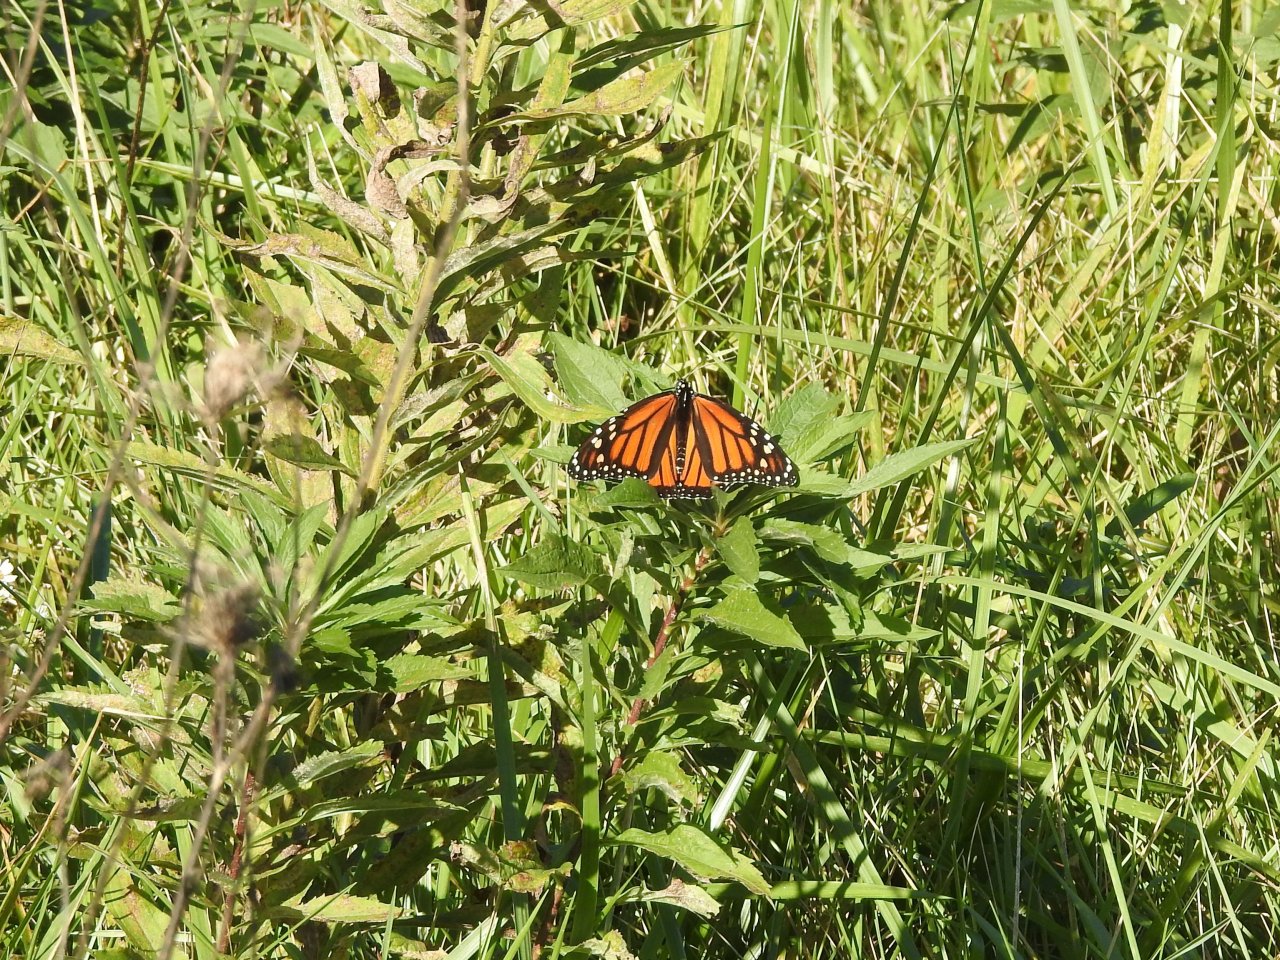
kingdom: Animalia
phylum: Arthropoda
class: Insecta
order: Lepidoptera
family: Nymphalidae
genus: Danaus
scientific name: Danaus plexippus
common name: Monarch
